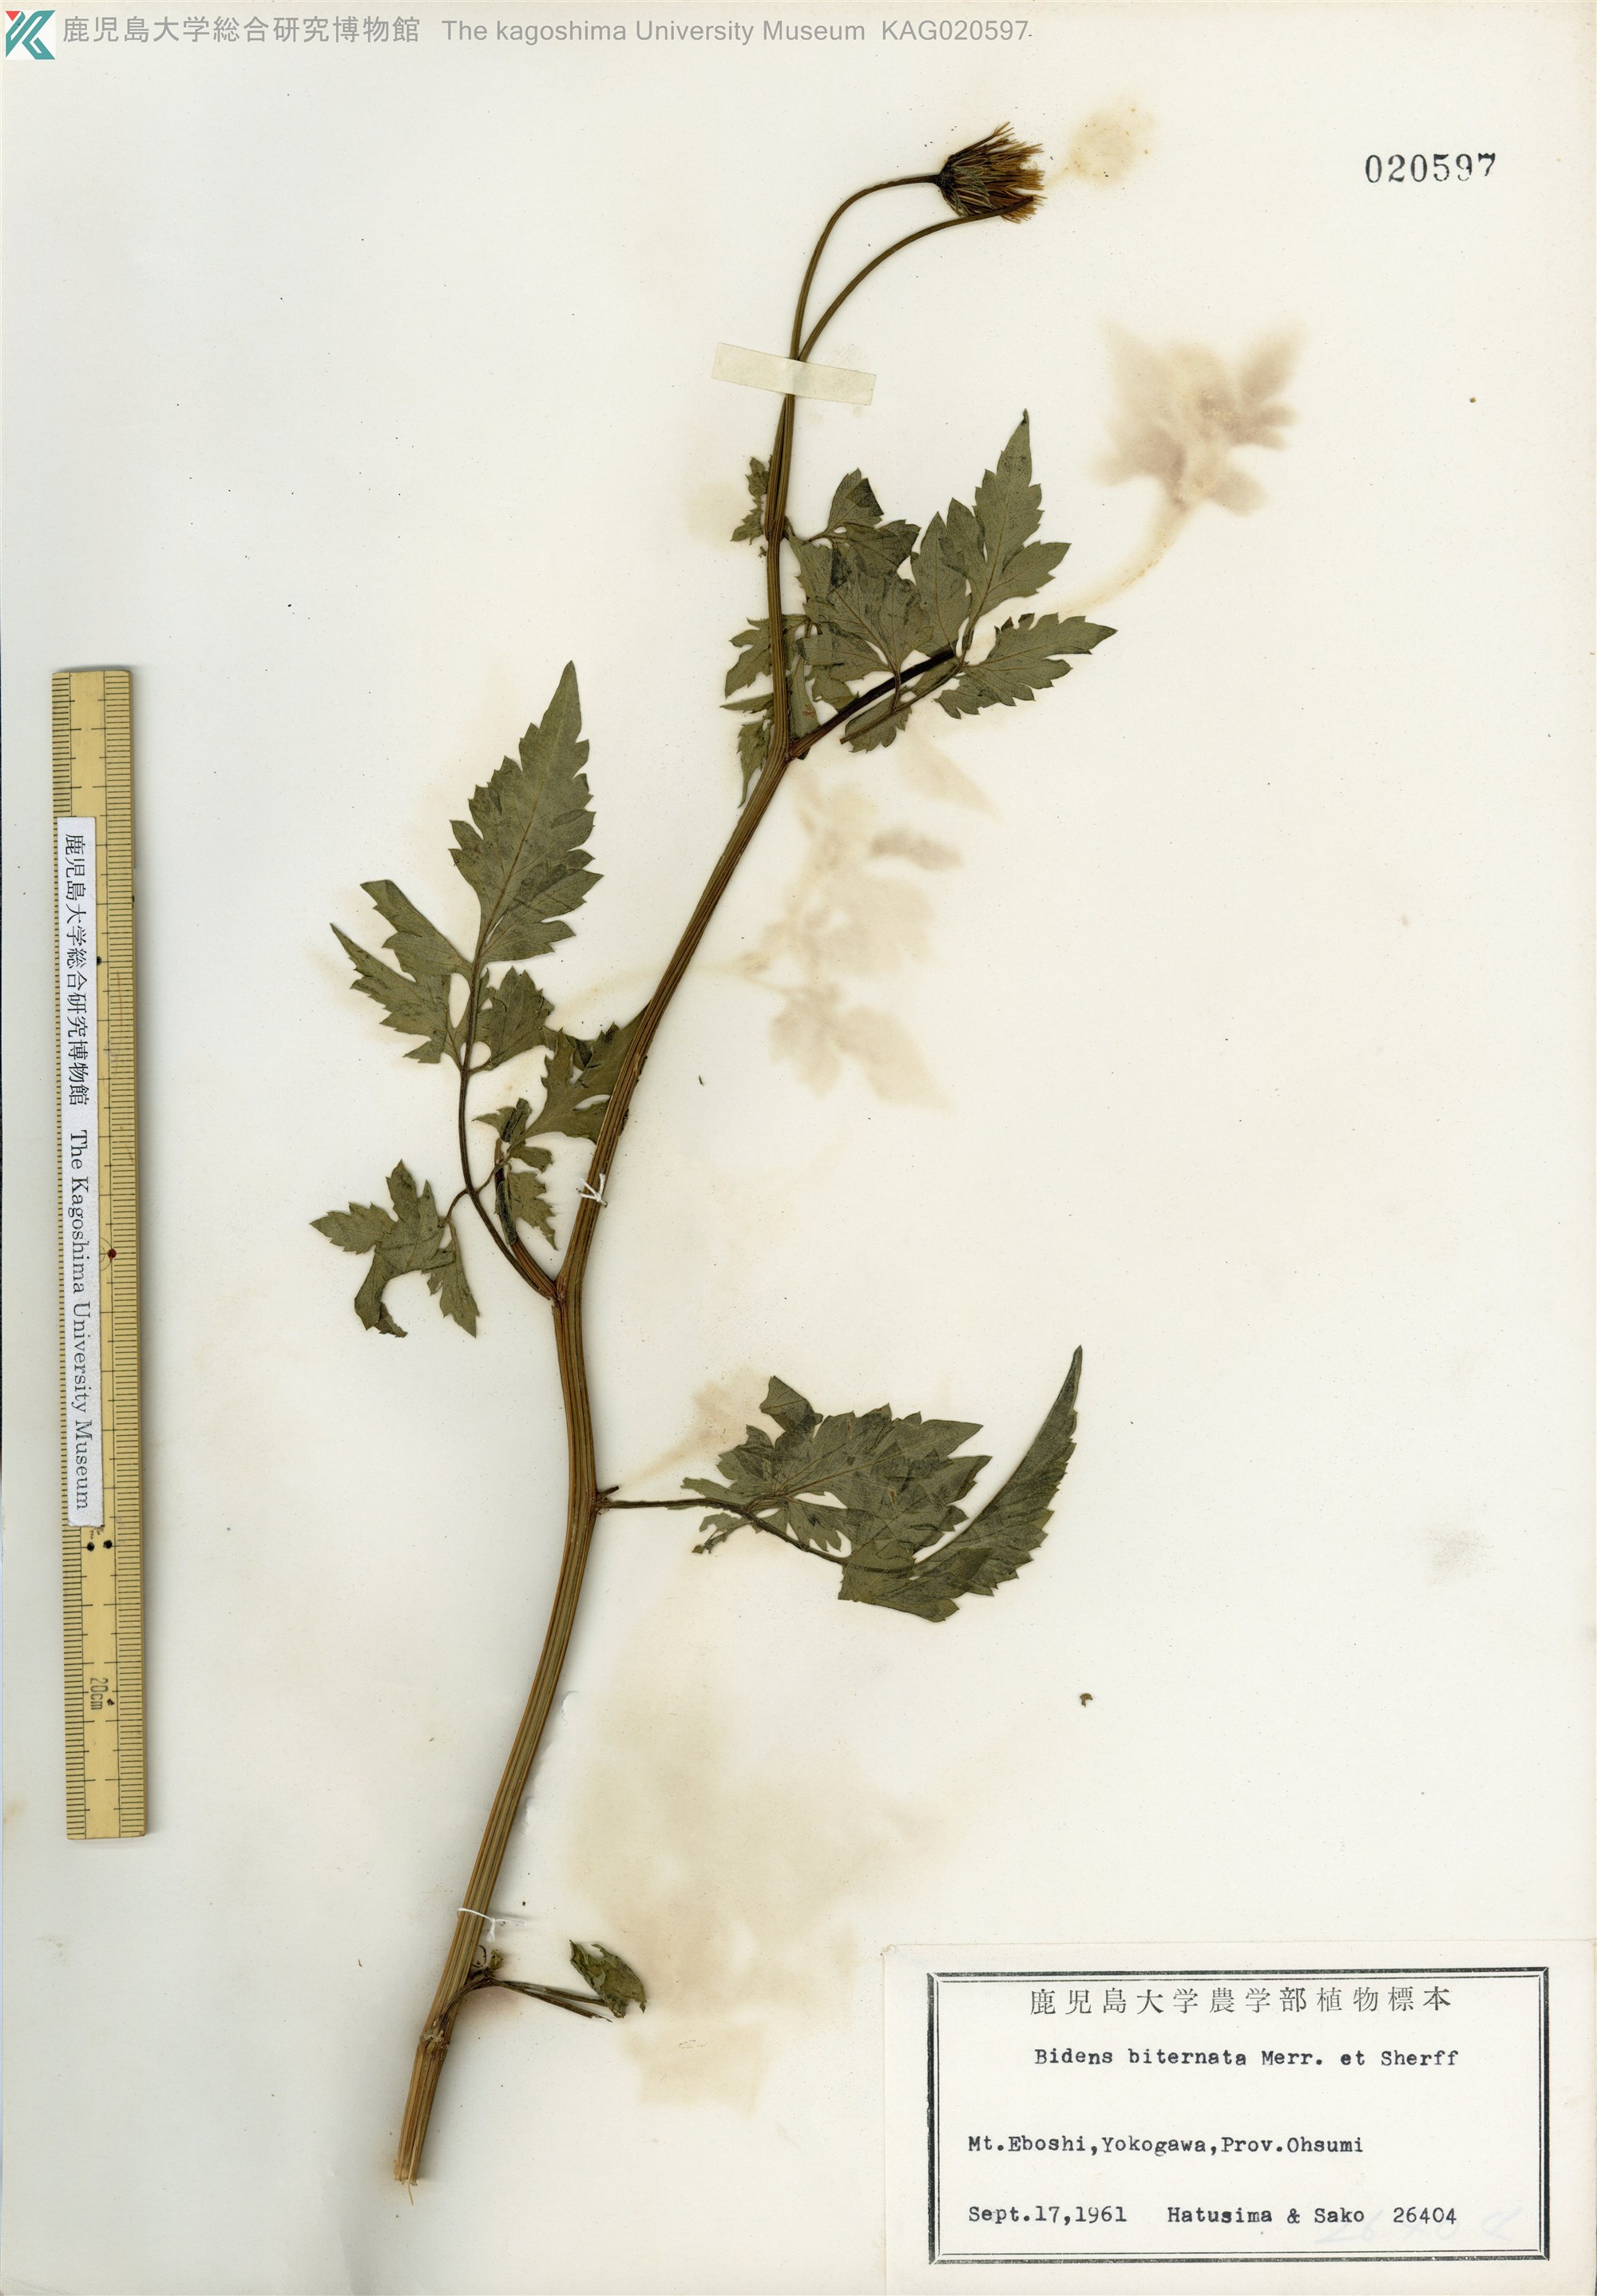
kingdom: Plantae
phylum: Tracheophyta
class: Magnoliopsida
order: Asterales
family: Asteraceae
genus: Bidens
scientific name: Bidens biternata
